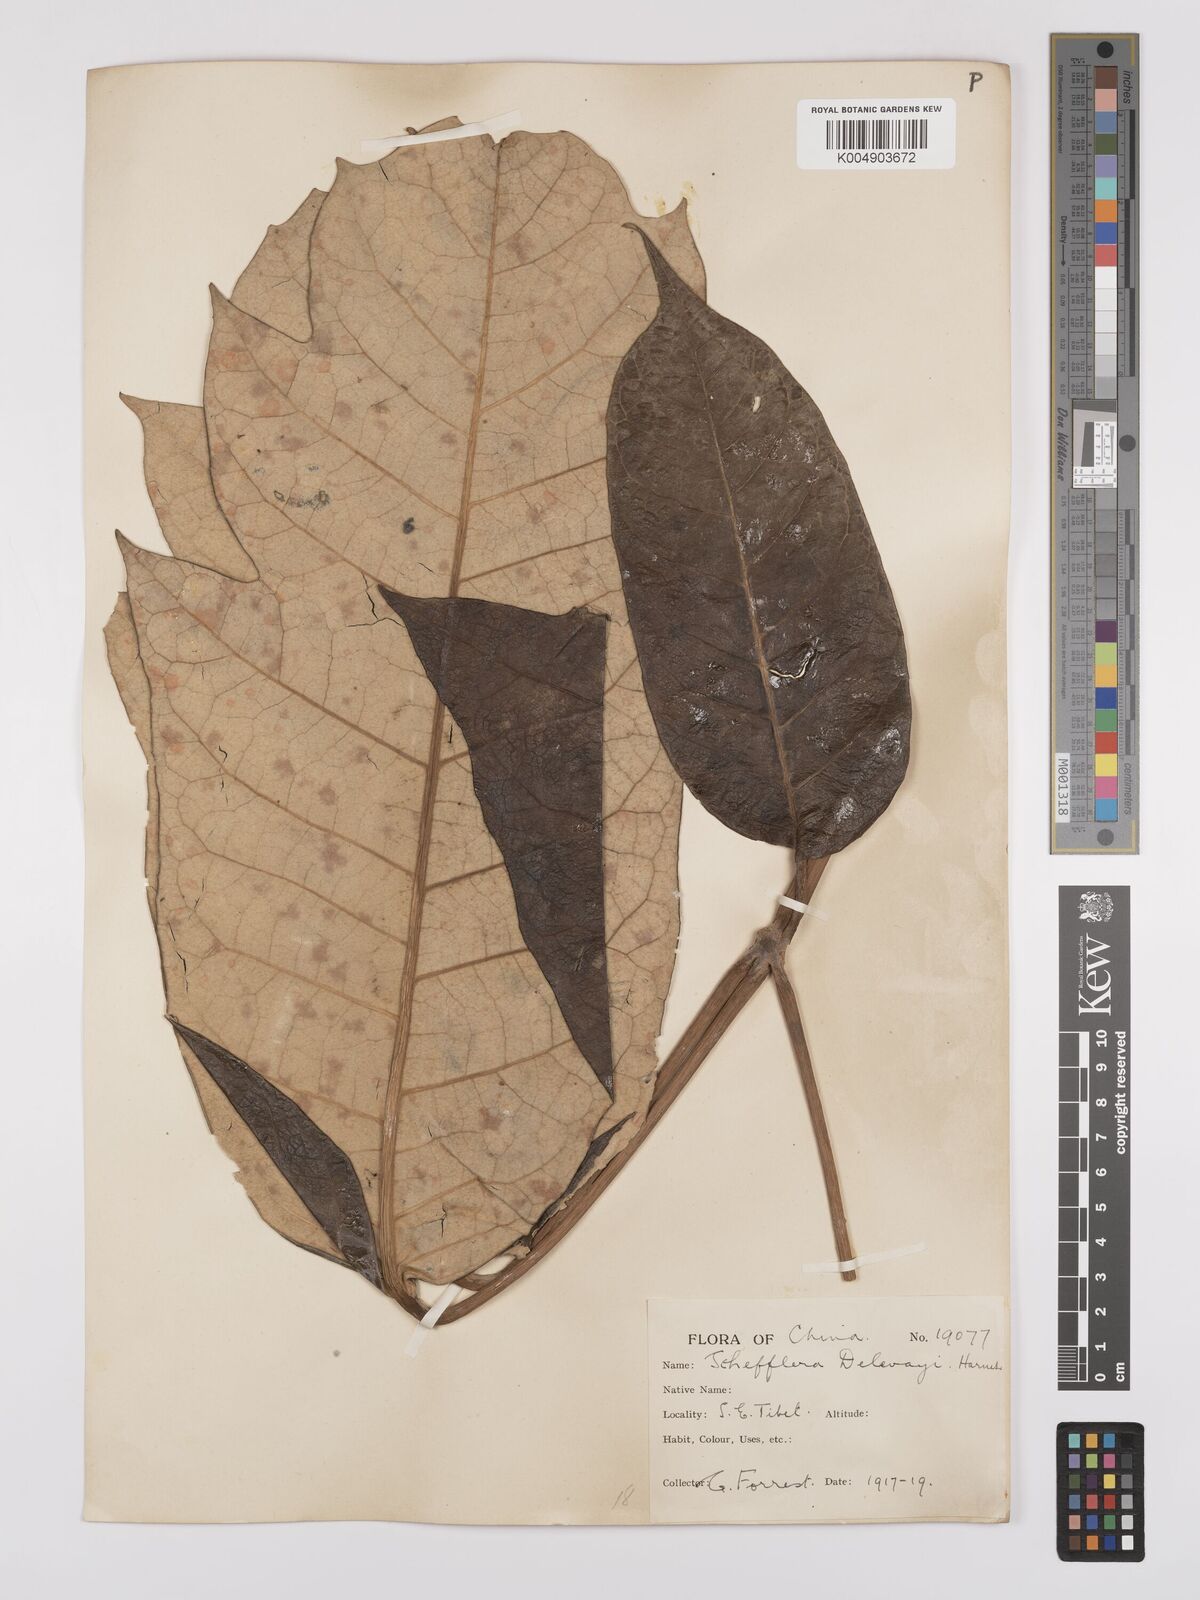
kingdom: Plantae
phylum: Tracheophyta
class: Magnoliopsida
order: Apiales
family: Araliaceae
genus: Heptapleurum
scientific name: Heptapleurum delavayi
